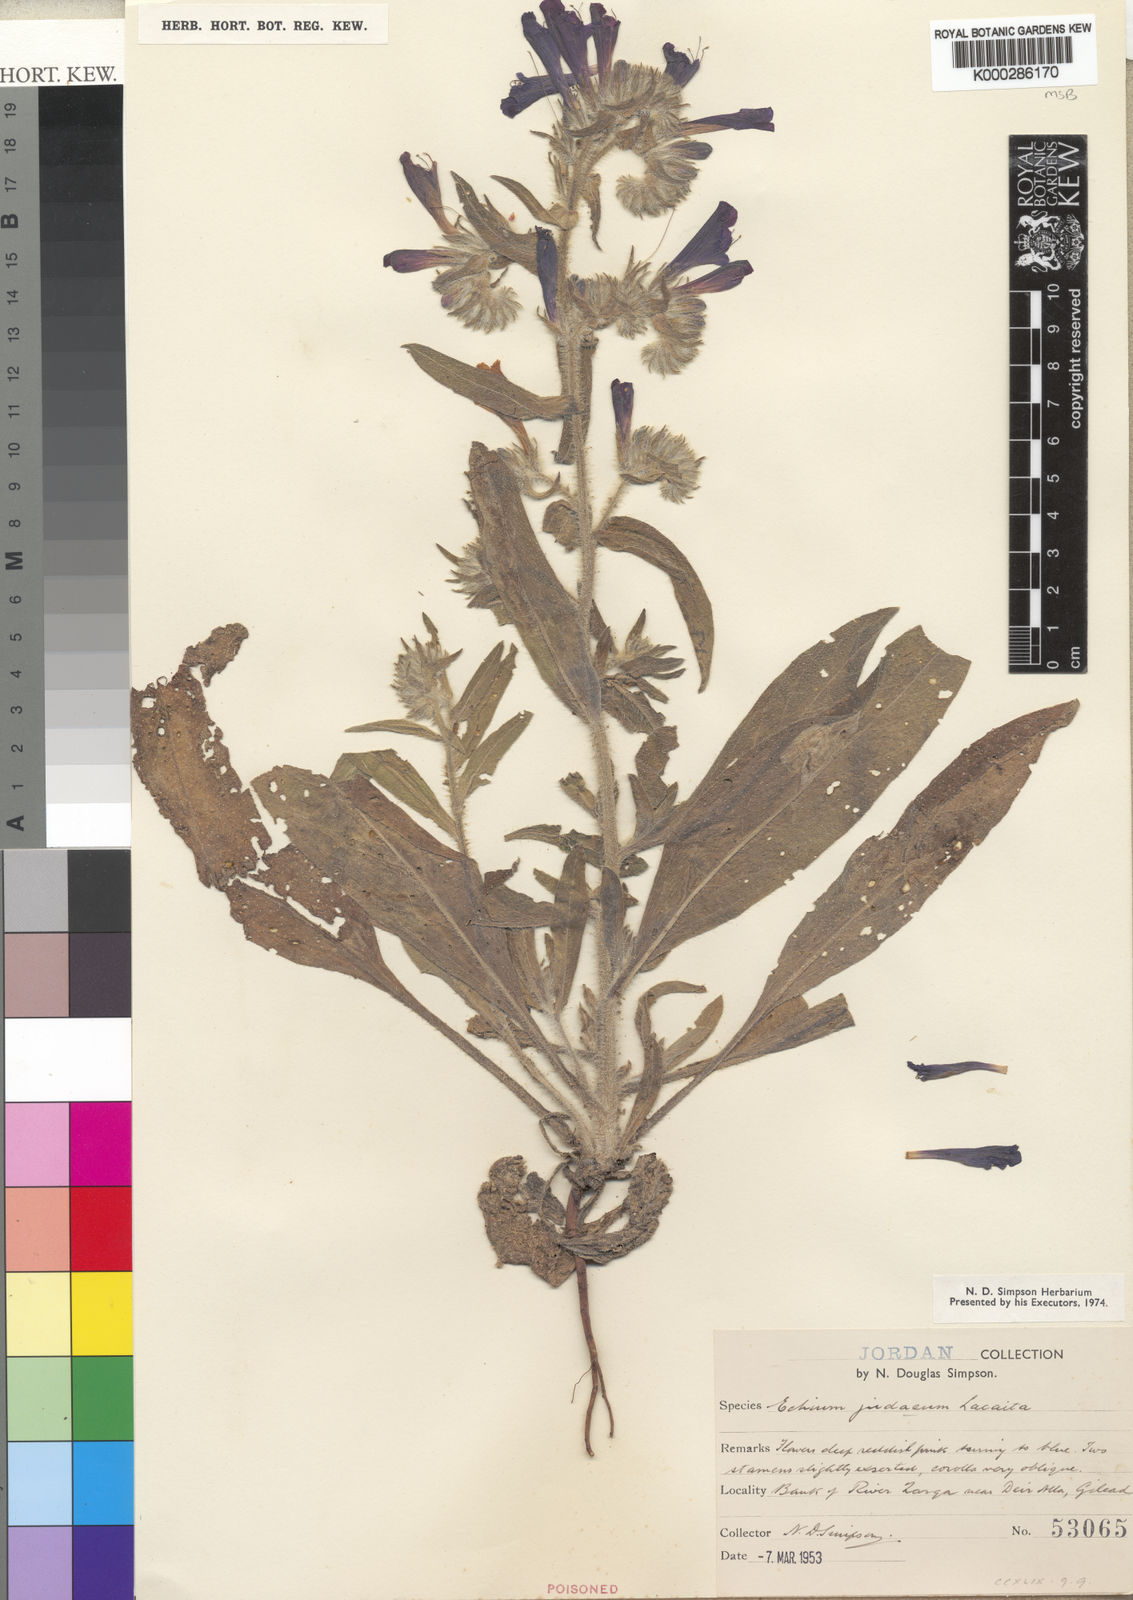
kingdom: Plantae
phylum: Tracheophyta
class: Magnoliopsida
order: Boraginales
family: Boraginaceae
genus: Echium
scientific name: Echium judaeum
